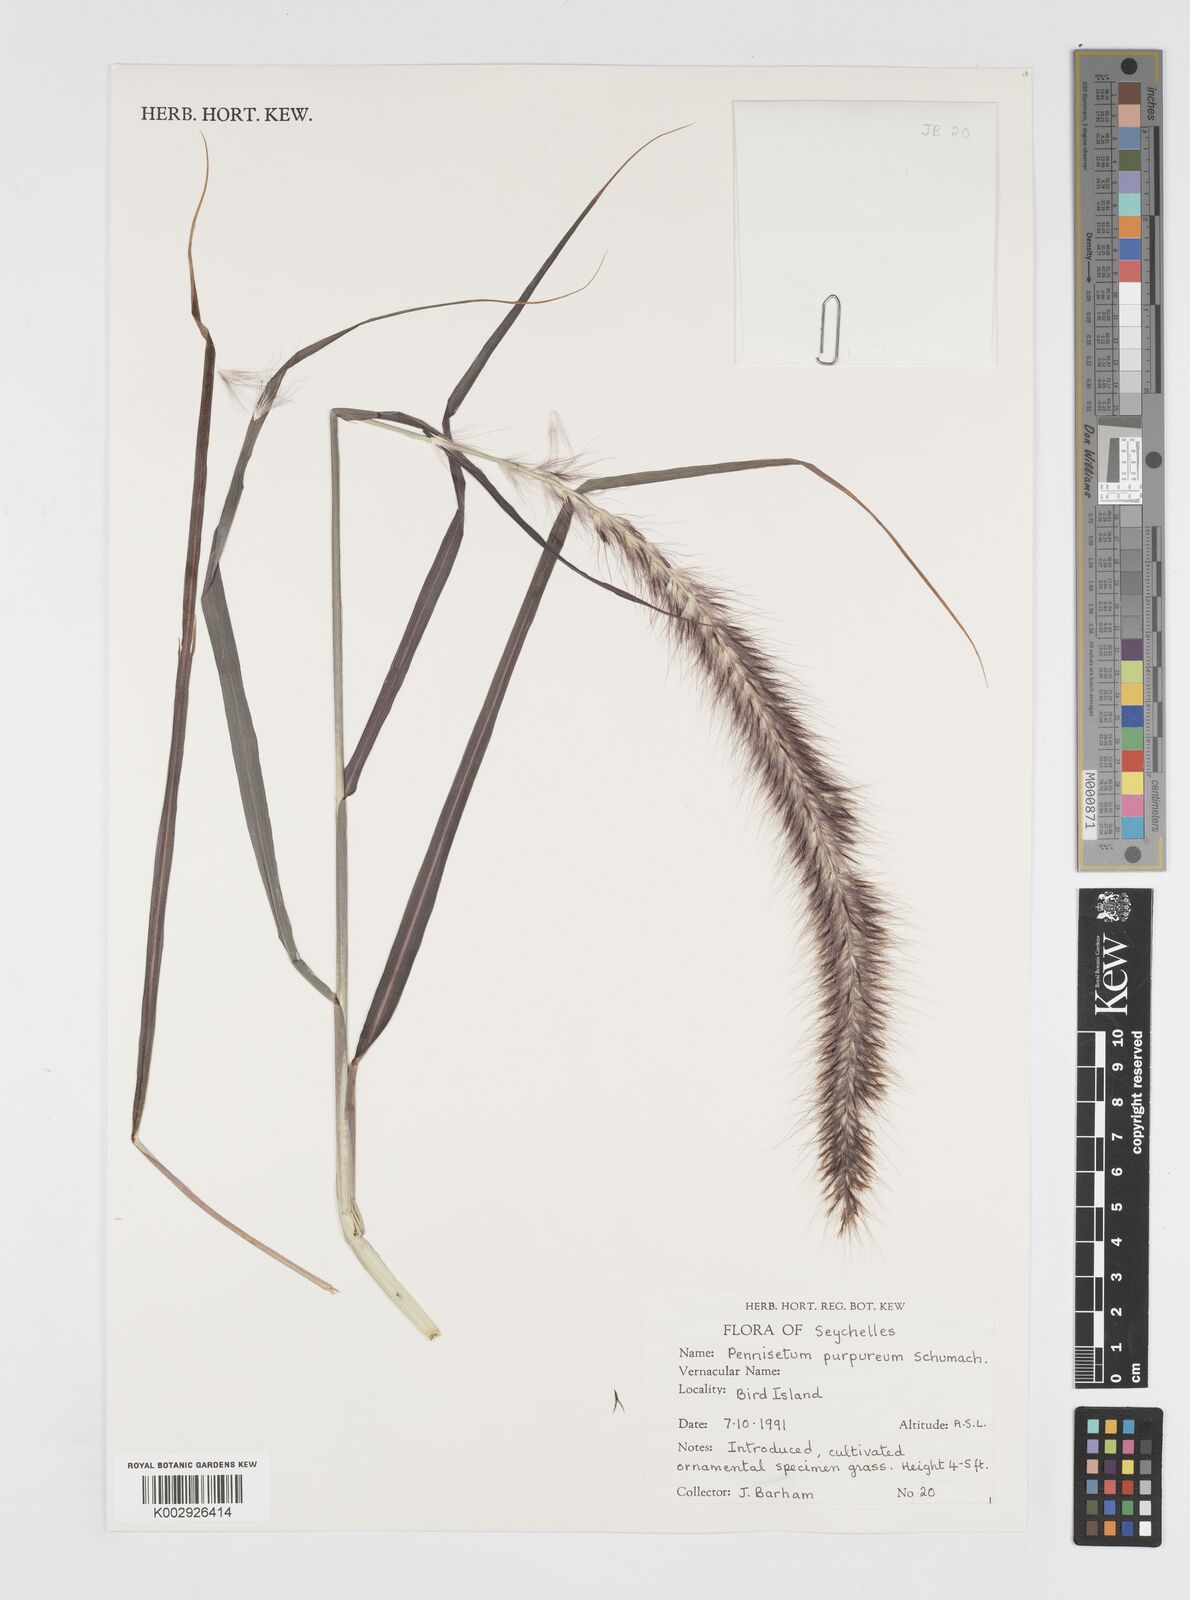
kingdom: Plantae
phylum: Tracheophyta
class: Liliopsida
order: Poales
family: Poaceae
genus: Cenchrus
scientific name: Cenchrus Pennisetum spec
